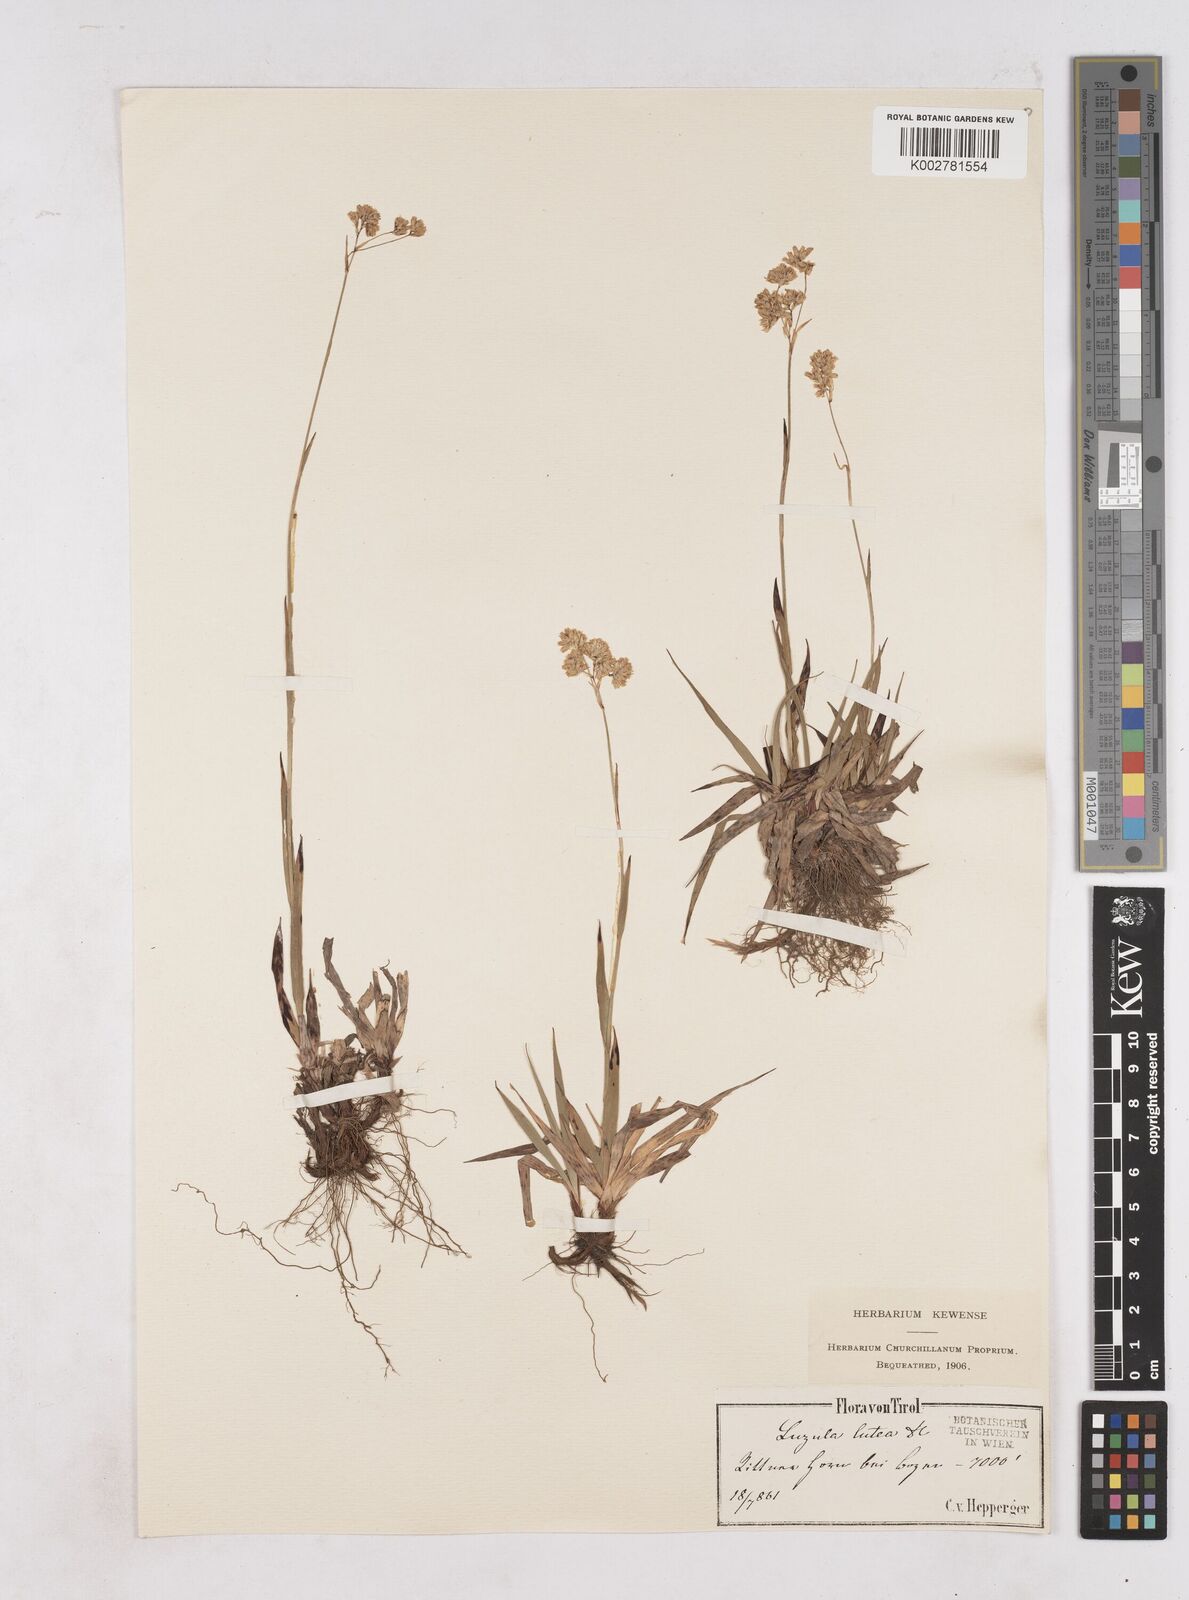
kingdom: Plantae
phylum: Tracheophyta
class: Liliopsida
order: Poales
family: Juncaceae
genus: Luzula
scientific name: Luzula lutea
